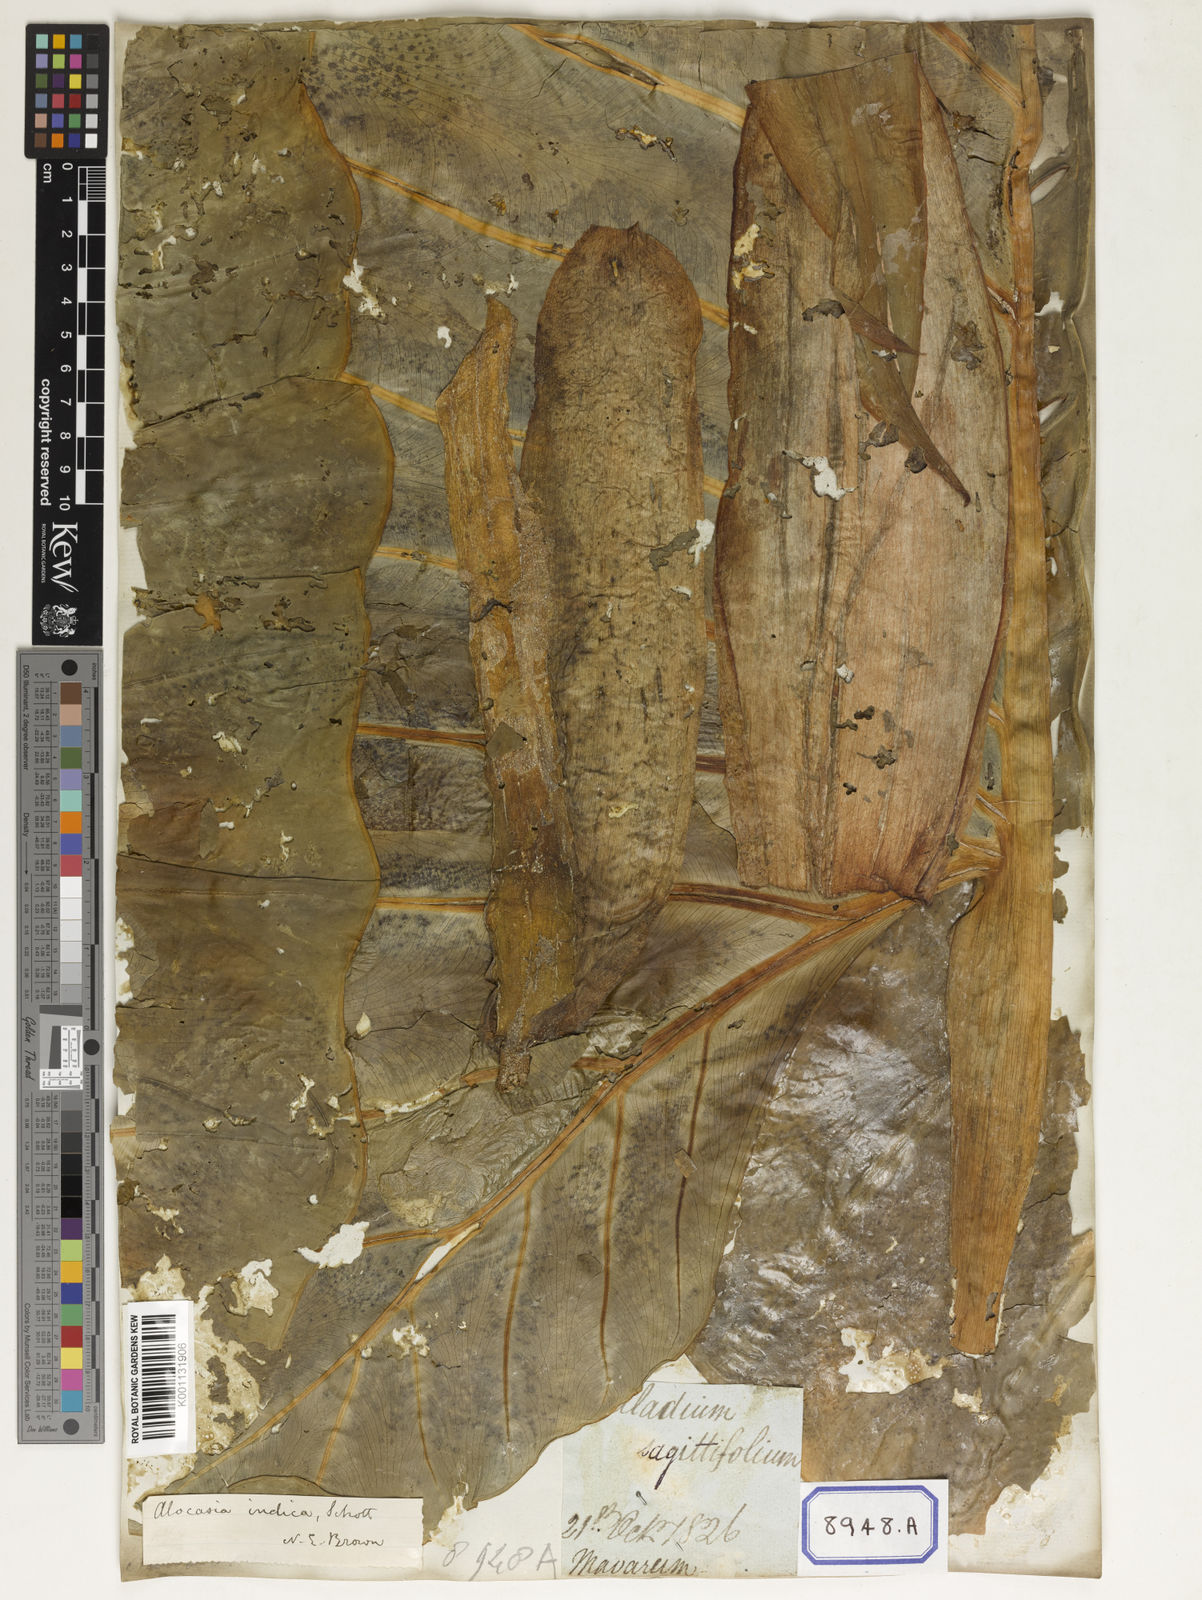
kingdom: Plantae
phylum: Tracheophyta
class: Liliopsida
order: Alismatales
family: Araceae
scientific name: Araceae
